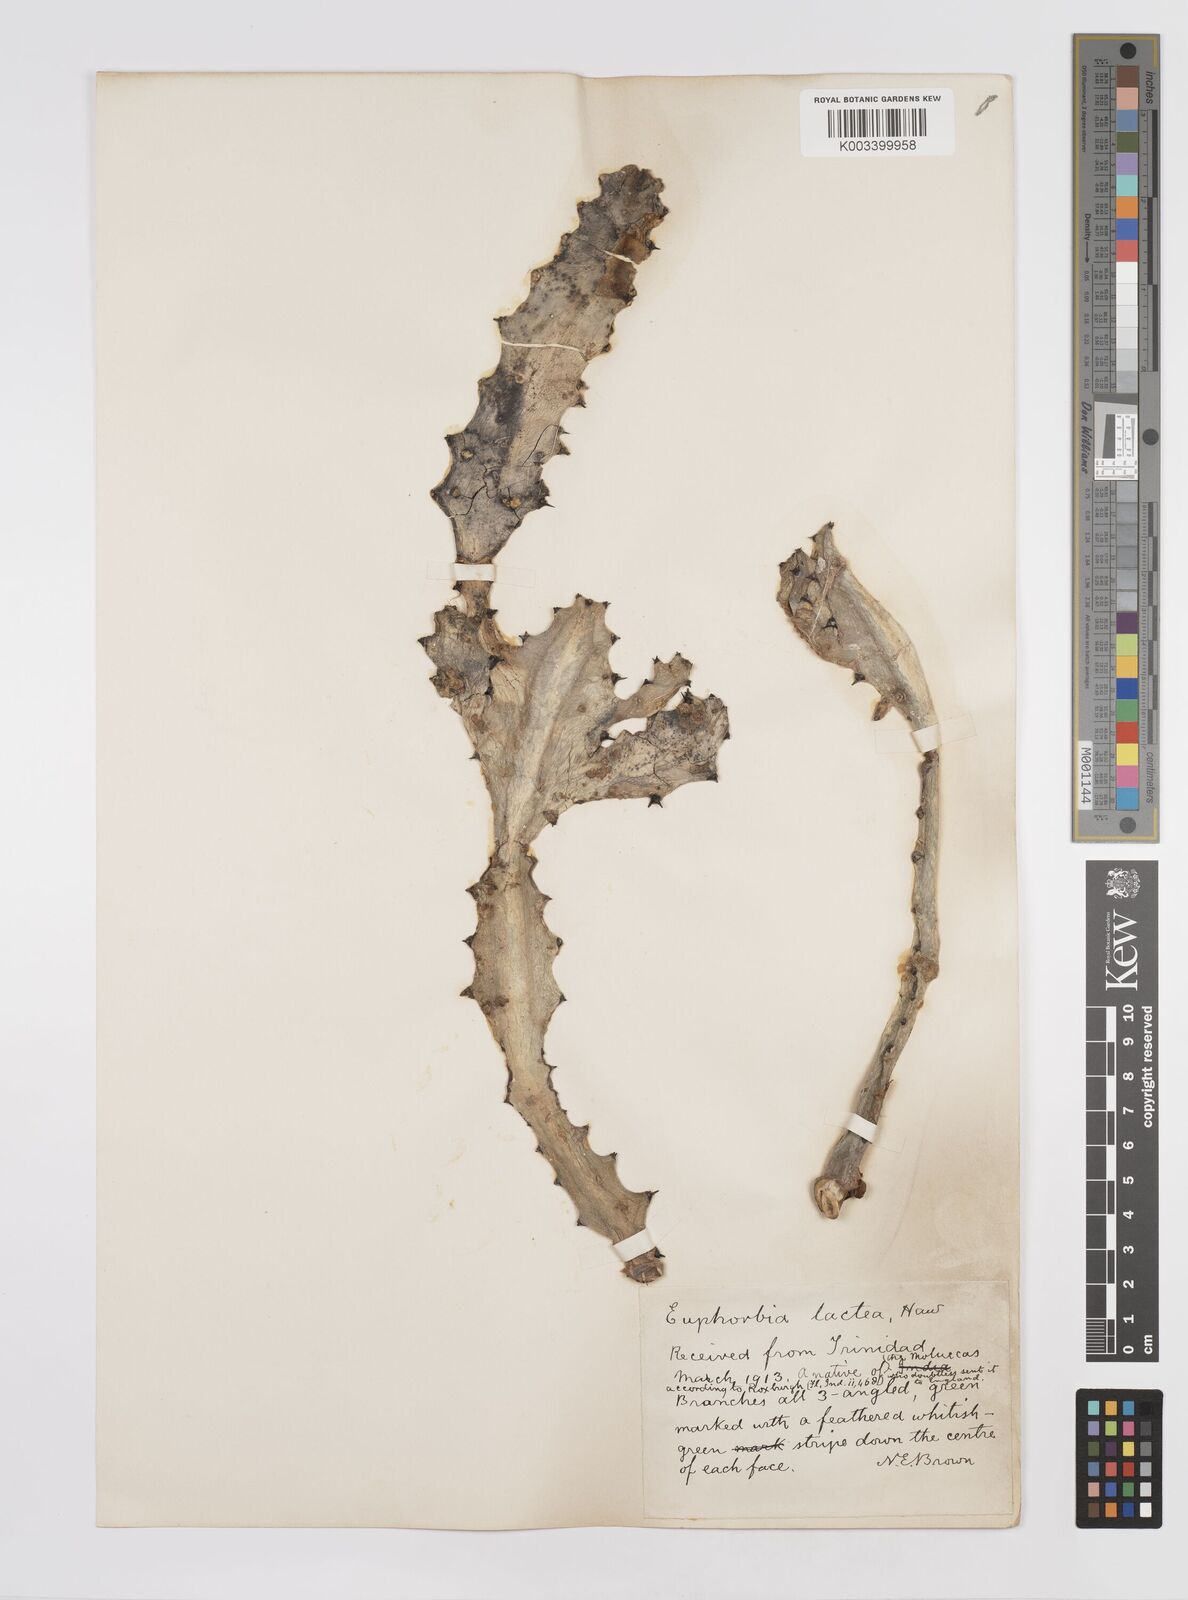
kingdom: Plantae
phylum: Tracheophyta
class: Magnoliopsida
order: Malpighiales
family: Euphorbiaceae
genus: Euphorbia
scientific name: Euphorbia
